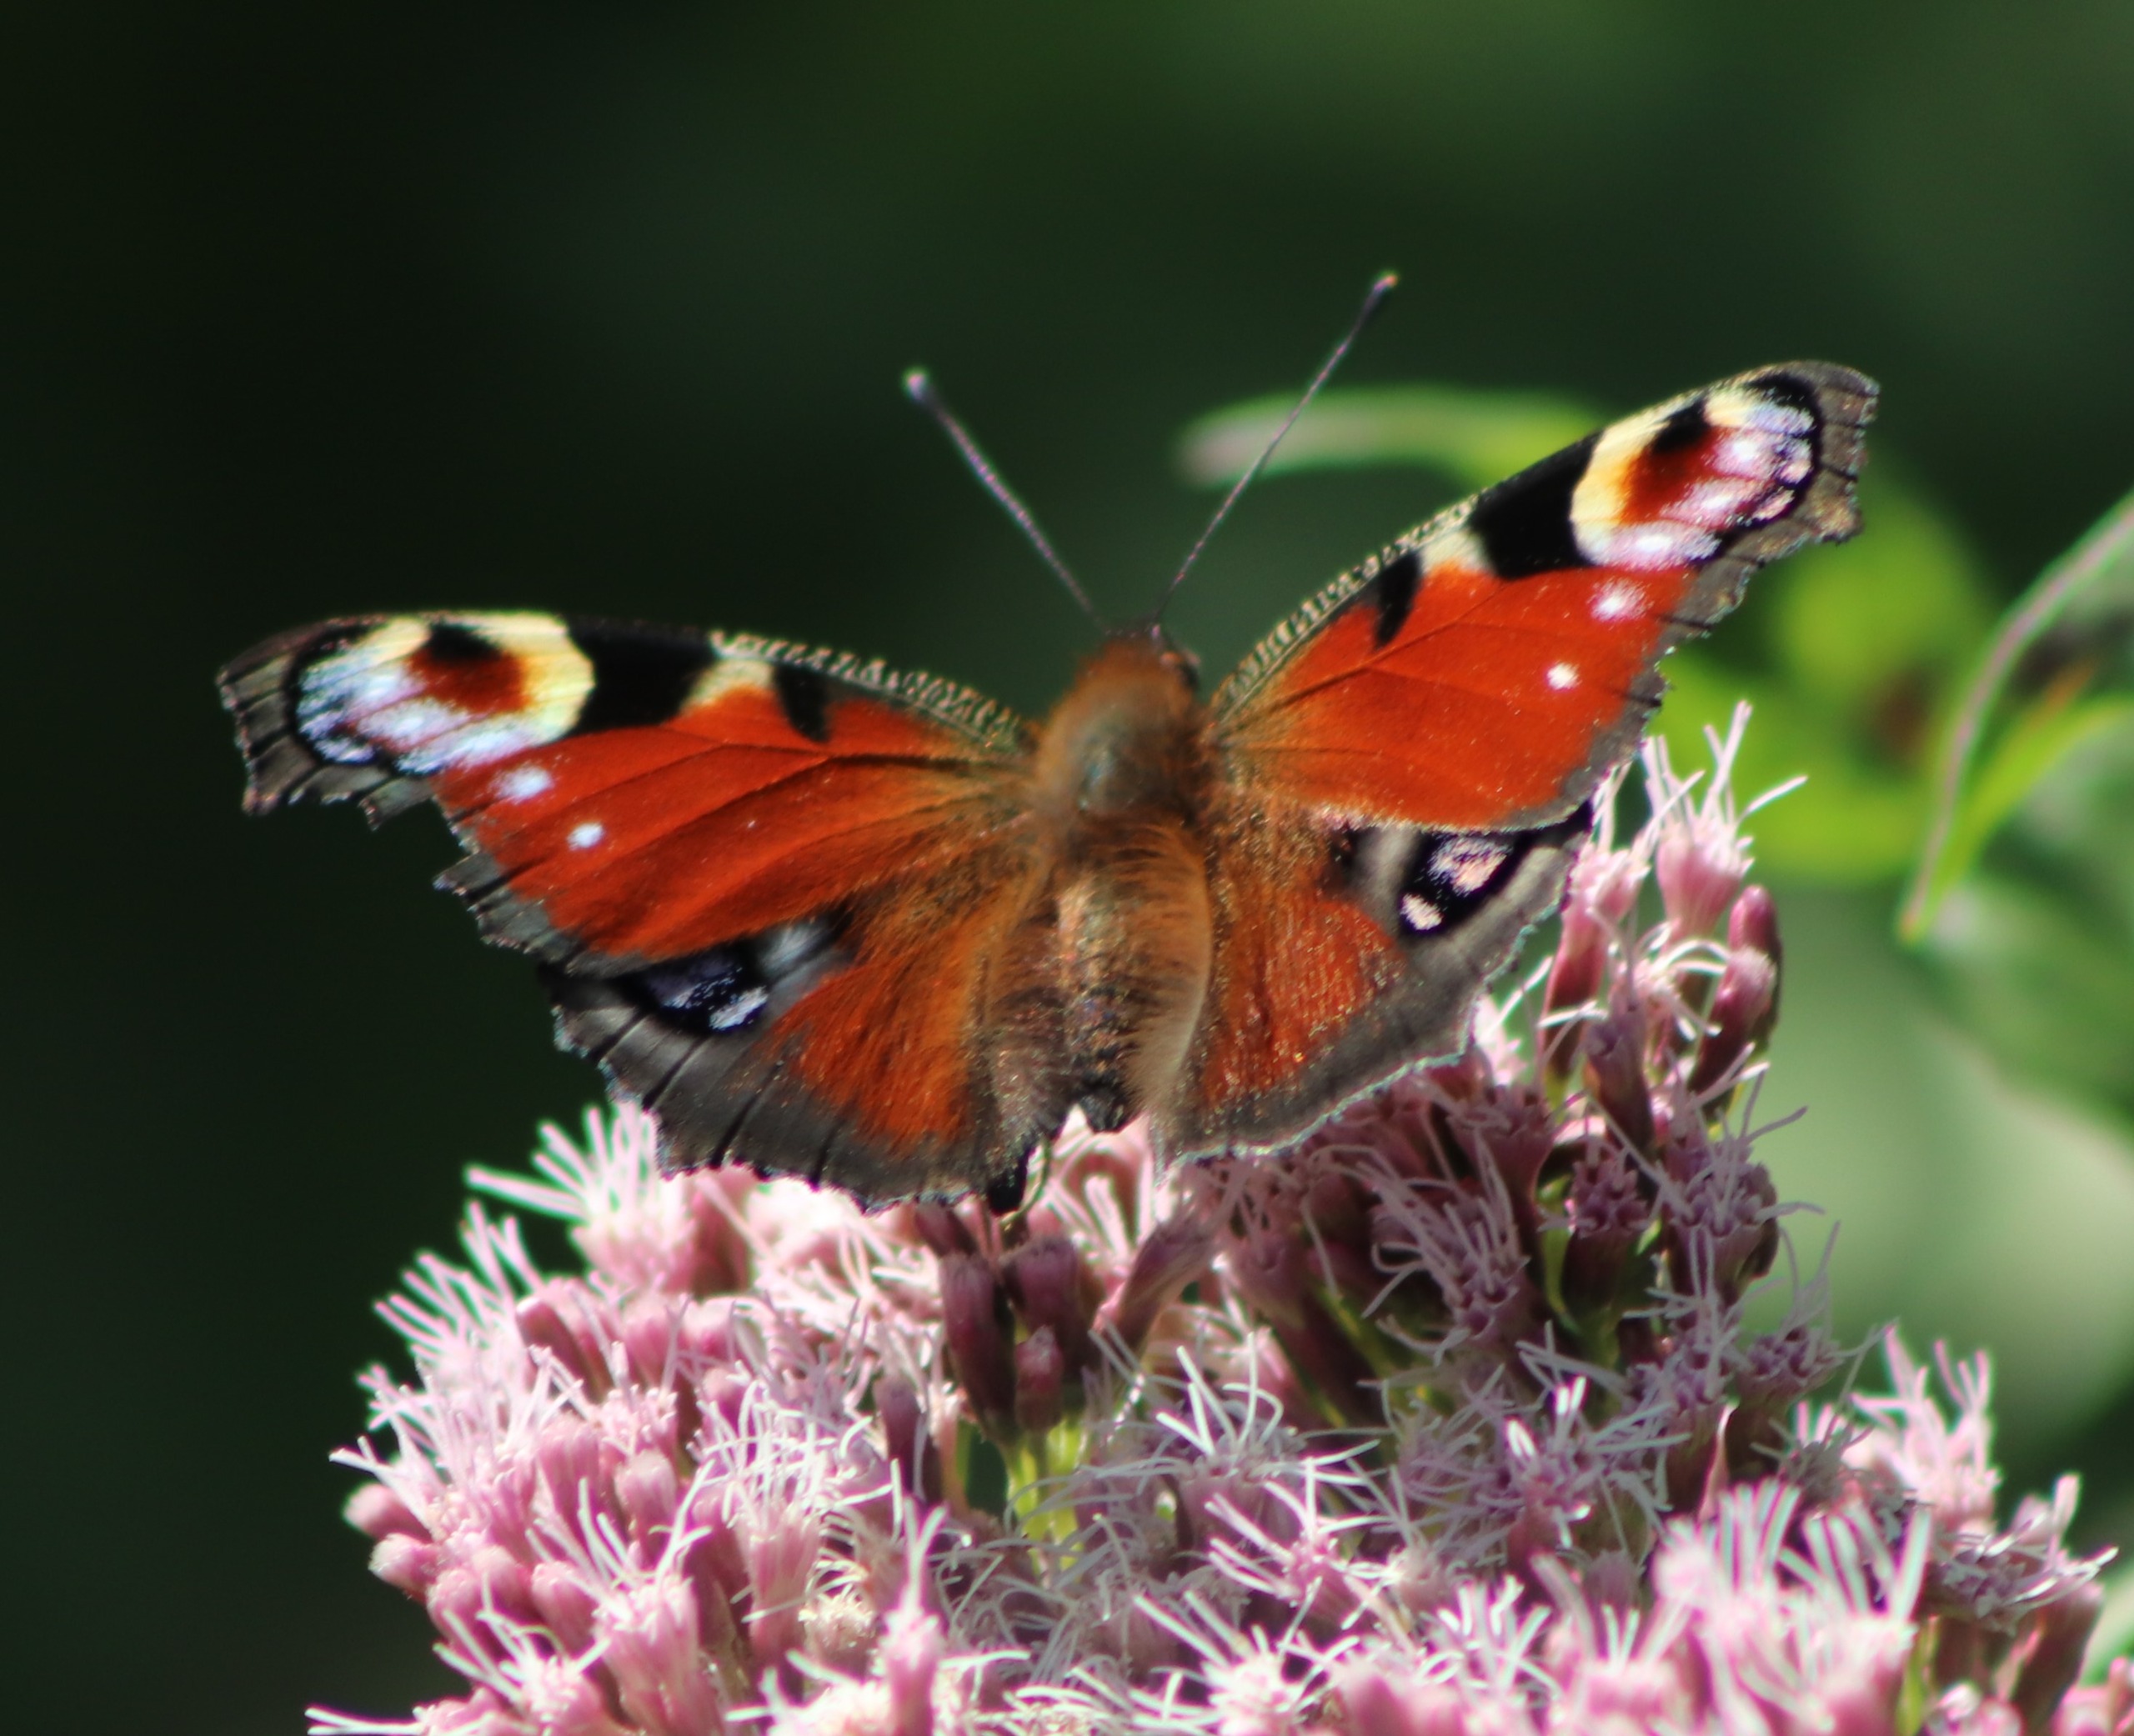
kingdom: Animalia
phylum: Arthropoda
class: Insecta
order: Lepidoptera
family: Nymphalidae
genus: Aglais
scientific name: Aglais io
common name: Dagpåfugleøje
